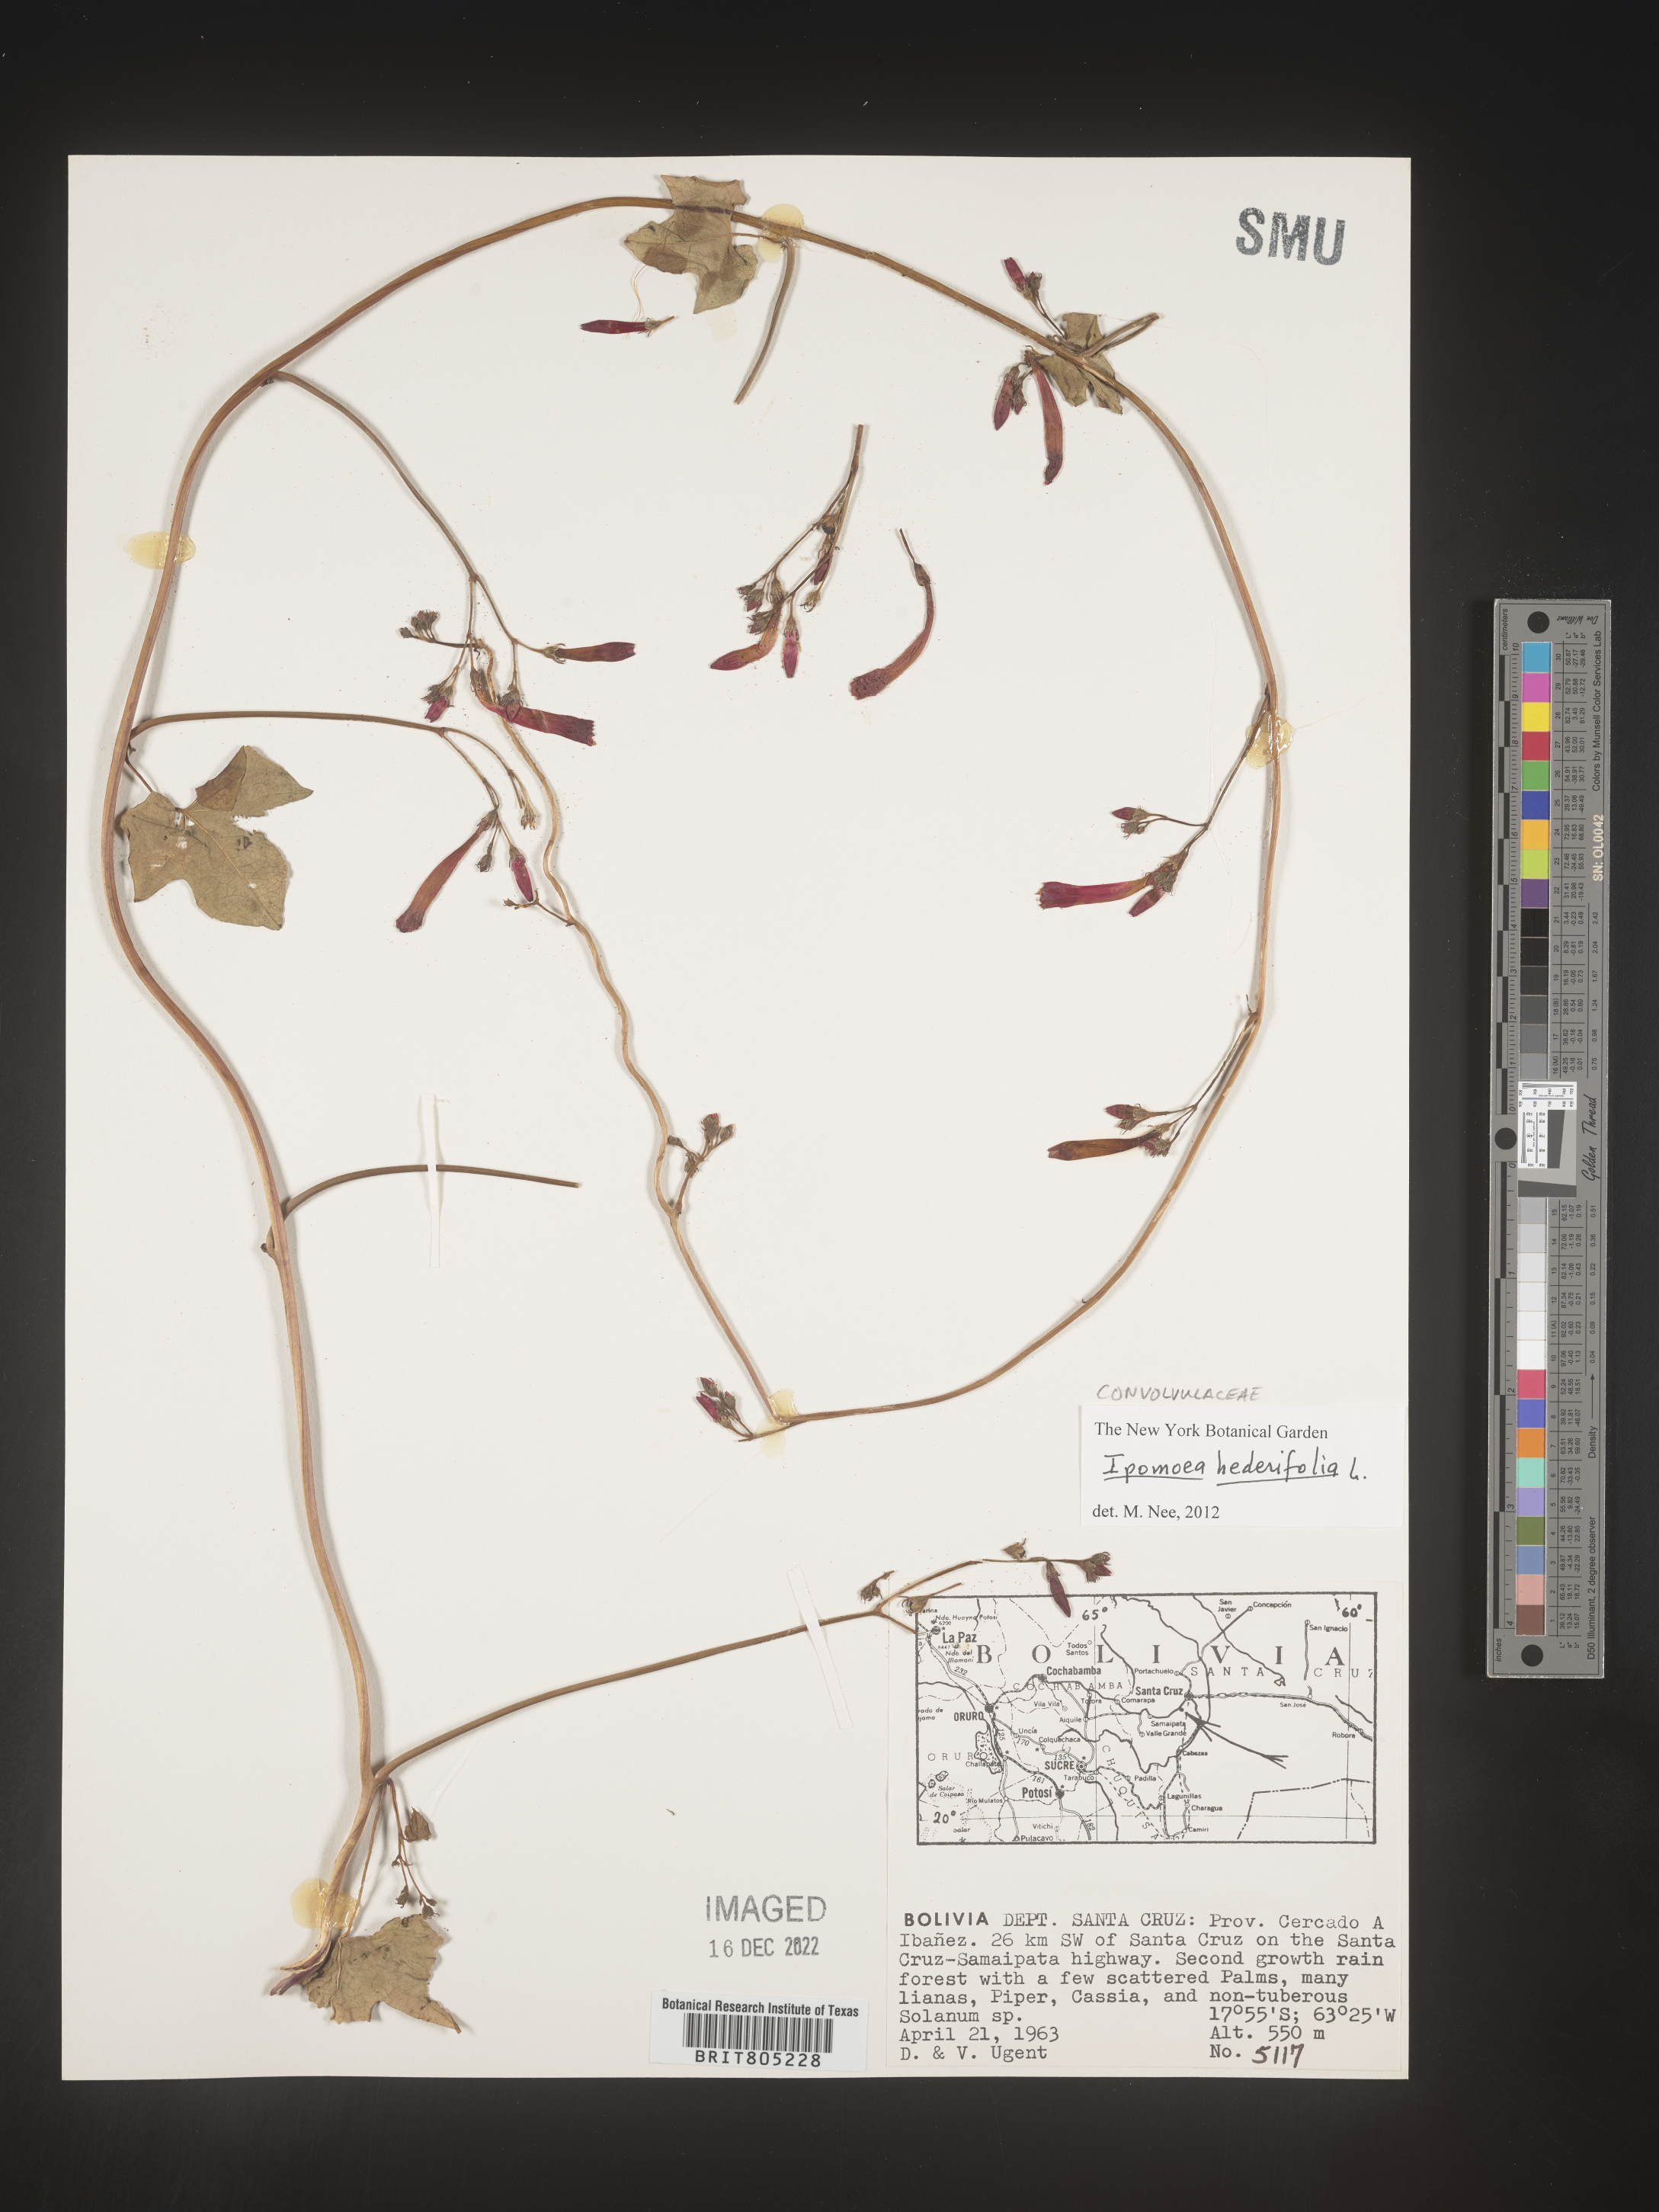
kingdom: Plantae
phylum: Tracheophyta
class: Magnoliopsida
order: Solanales
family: Convolvulaceae
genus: Ipomoea
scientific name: Ipomoea
